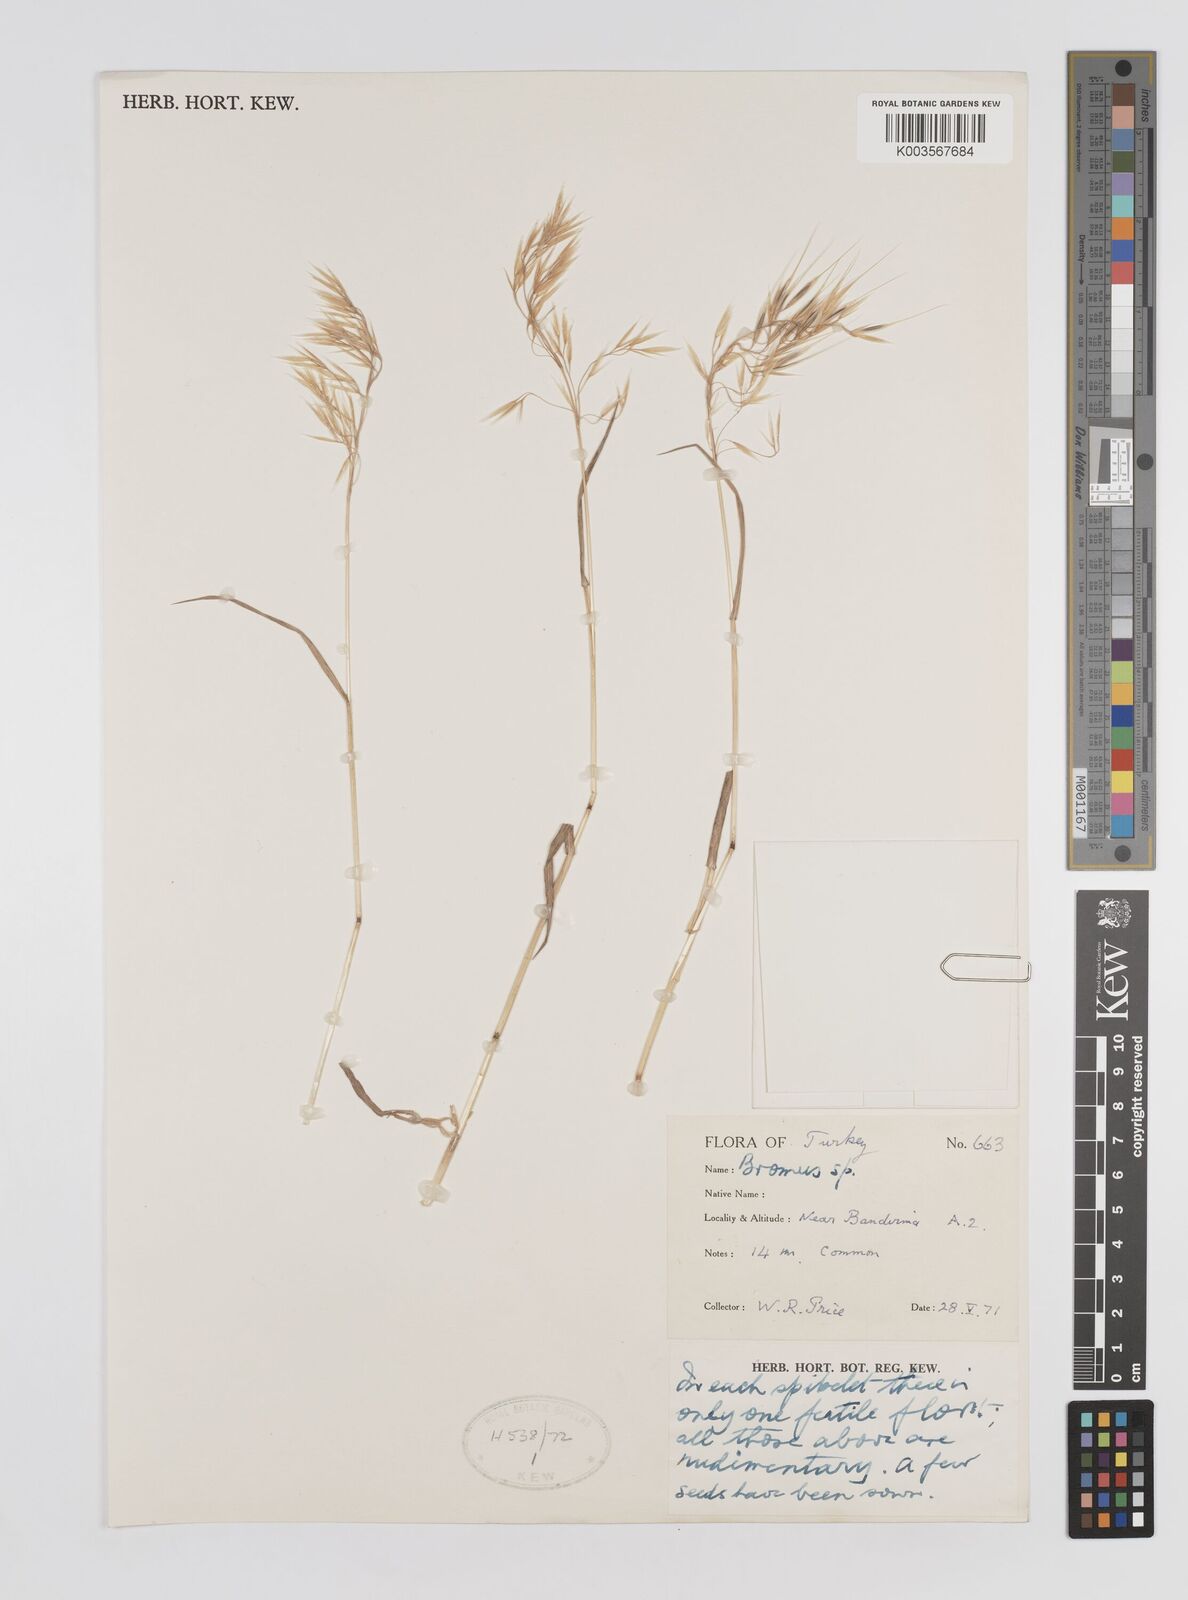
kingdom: Plantae
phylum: Tracheophyta
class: Liliopsida
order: Poales
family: Poaceae
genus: Bromus
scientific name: Bromus
